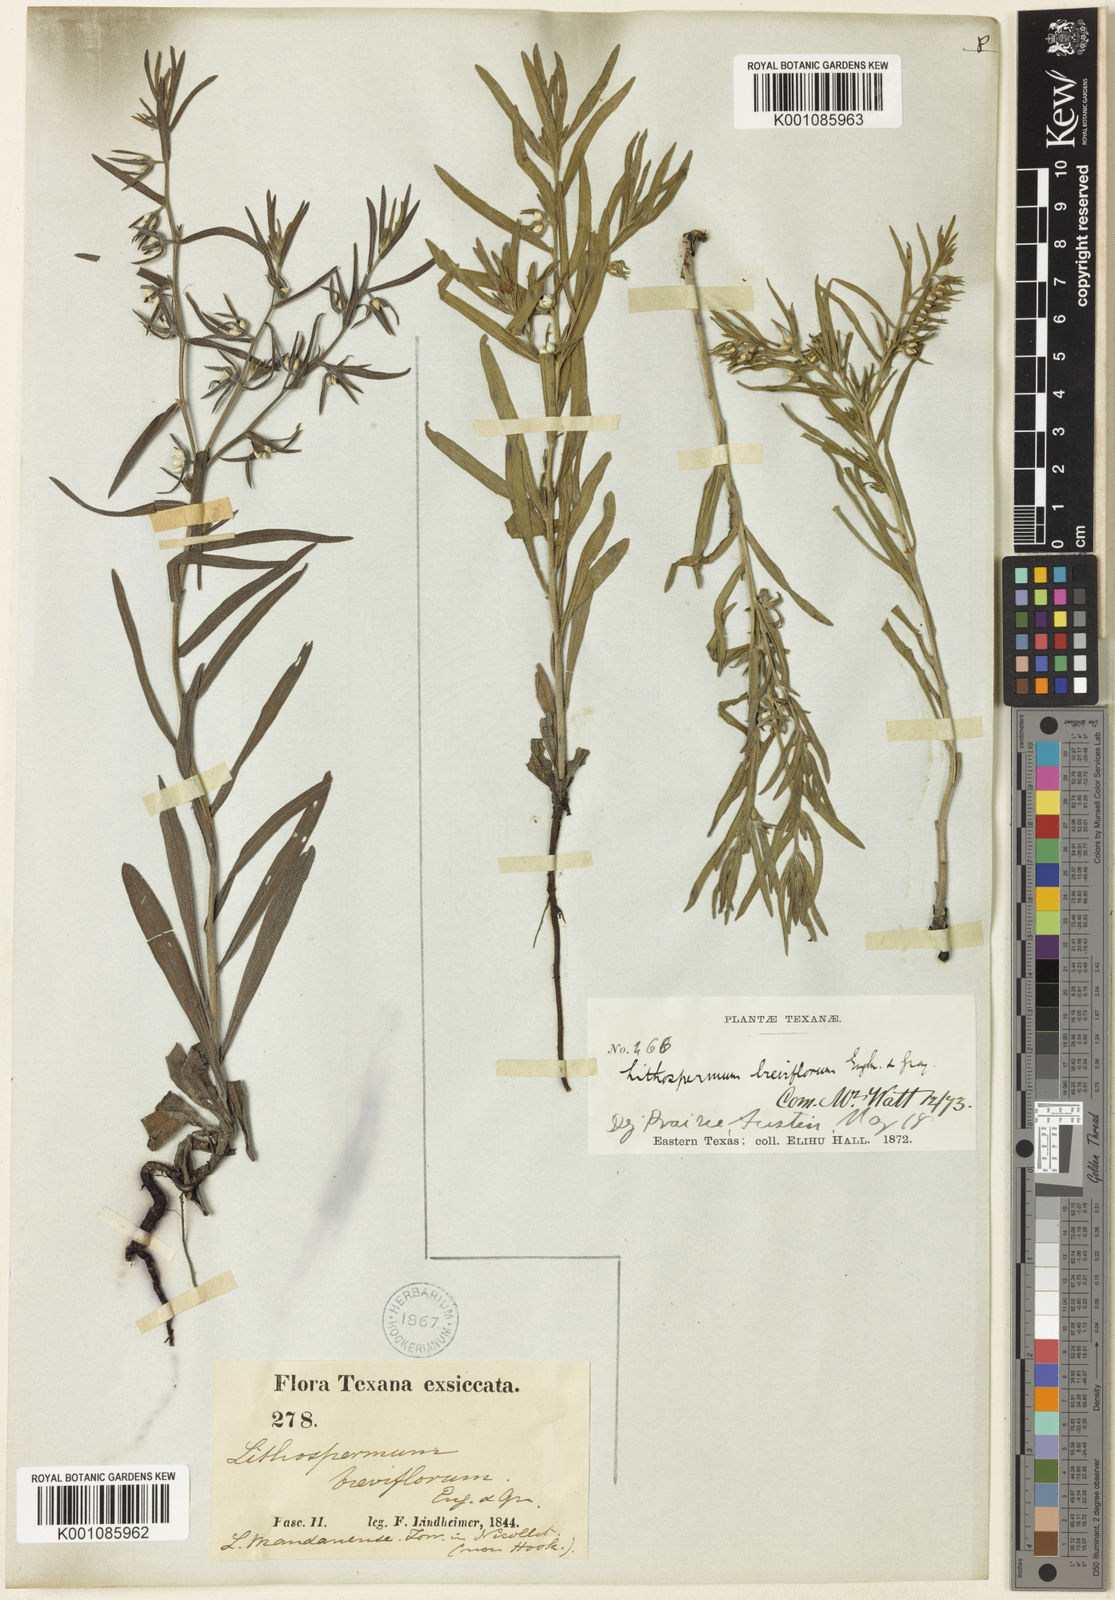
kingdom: Plantae
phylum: Tracheophyta
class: Magnoliopsida
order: Boraginales
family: Boraginaceae
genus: Lithospermum
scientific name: Lithospermum incisum
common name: Fringed gromwell
